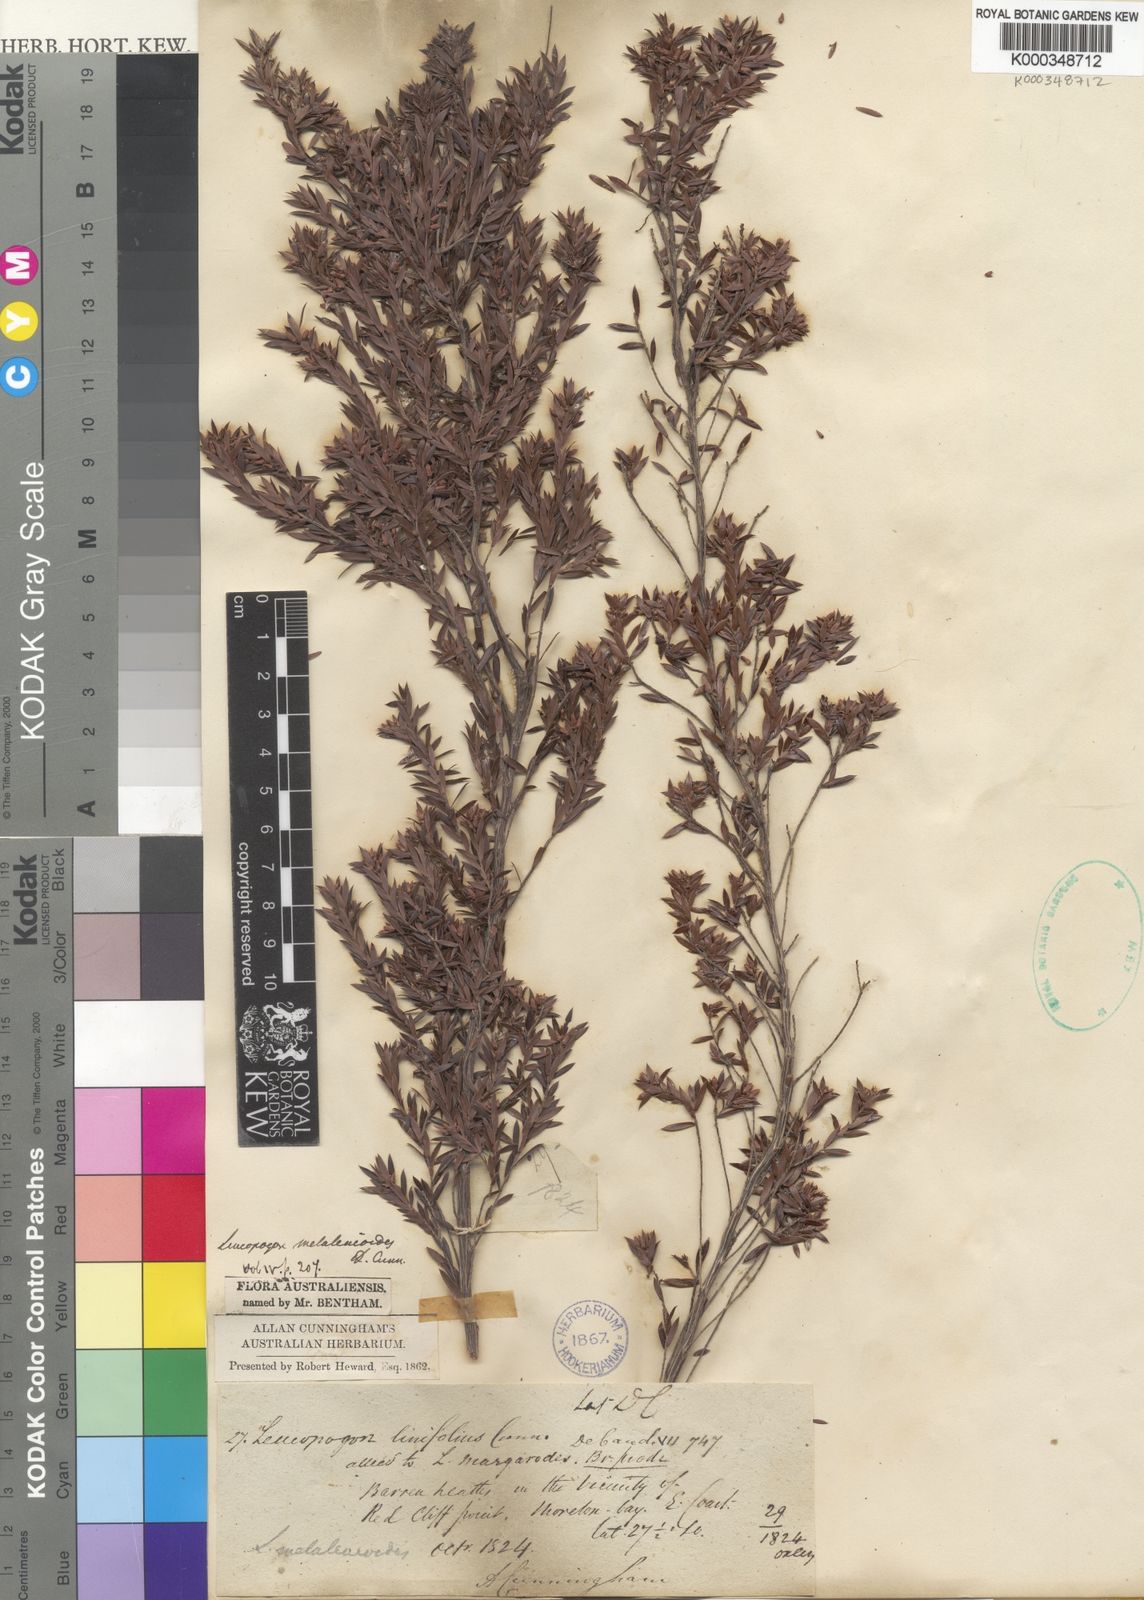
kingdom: Plantae
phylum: Tracheophyta
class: Magnoliopsida
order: Ericales
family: Ericaceae
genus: Acrothamnus
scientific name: Acrothamnus melaleucoides
